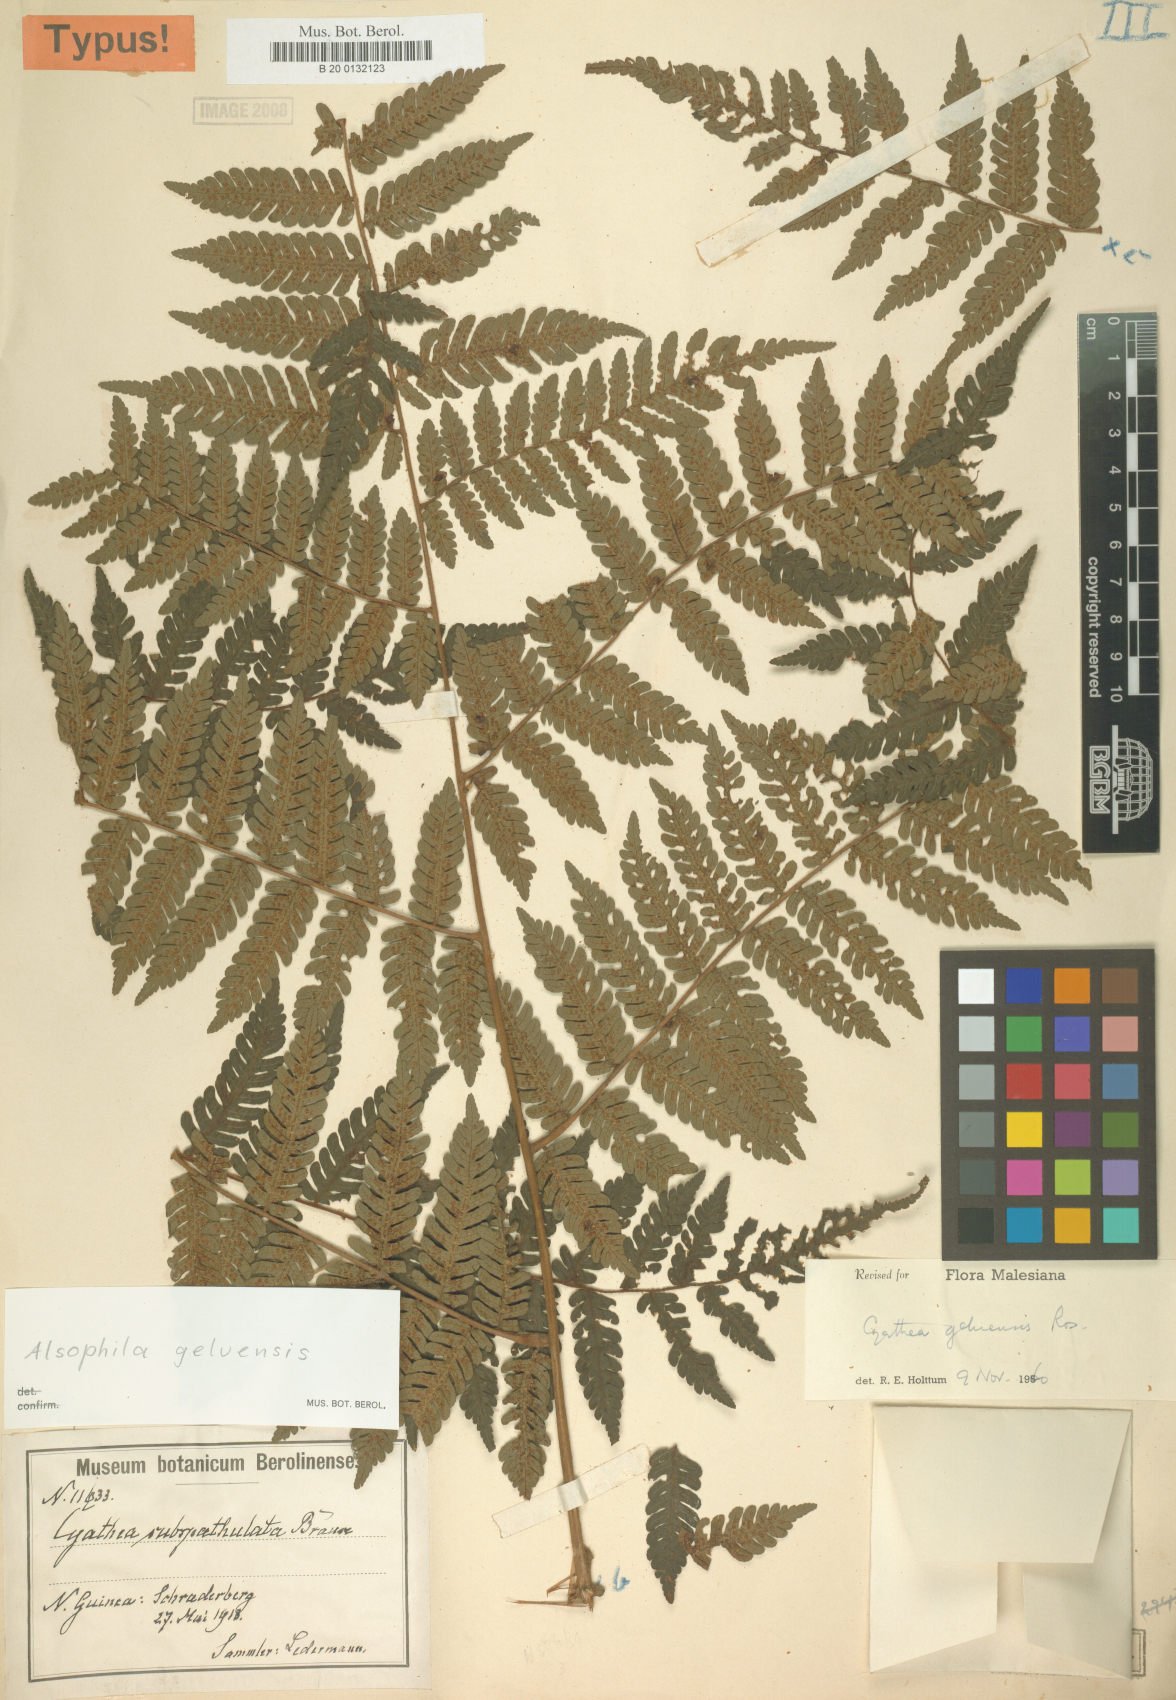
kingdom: Plantae
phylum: Tracheophyta
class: Polypodiopsida
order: Cyatheales
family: Cyatheaceae
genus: Alsophila
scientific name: Alsophila geluensis
